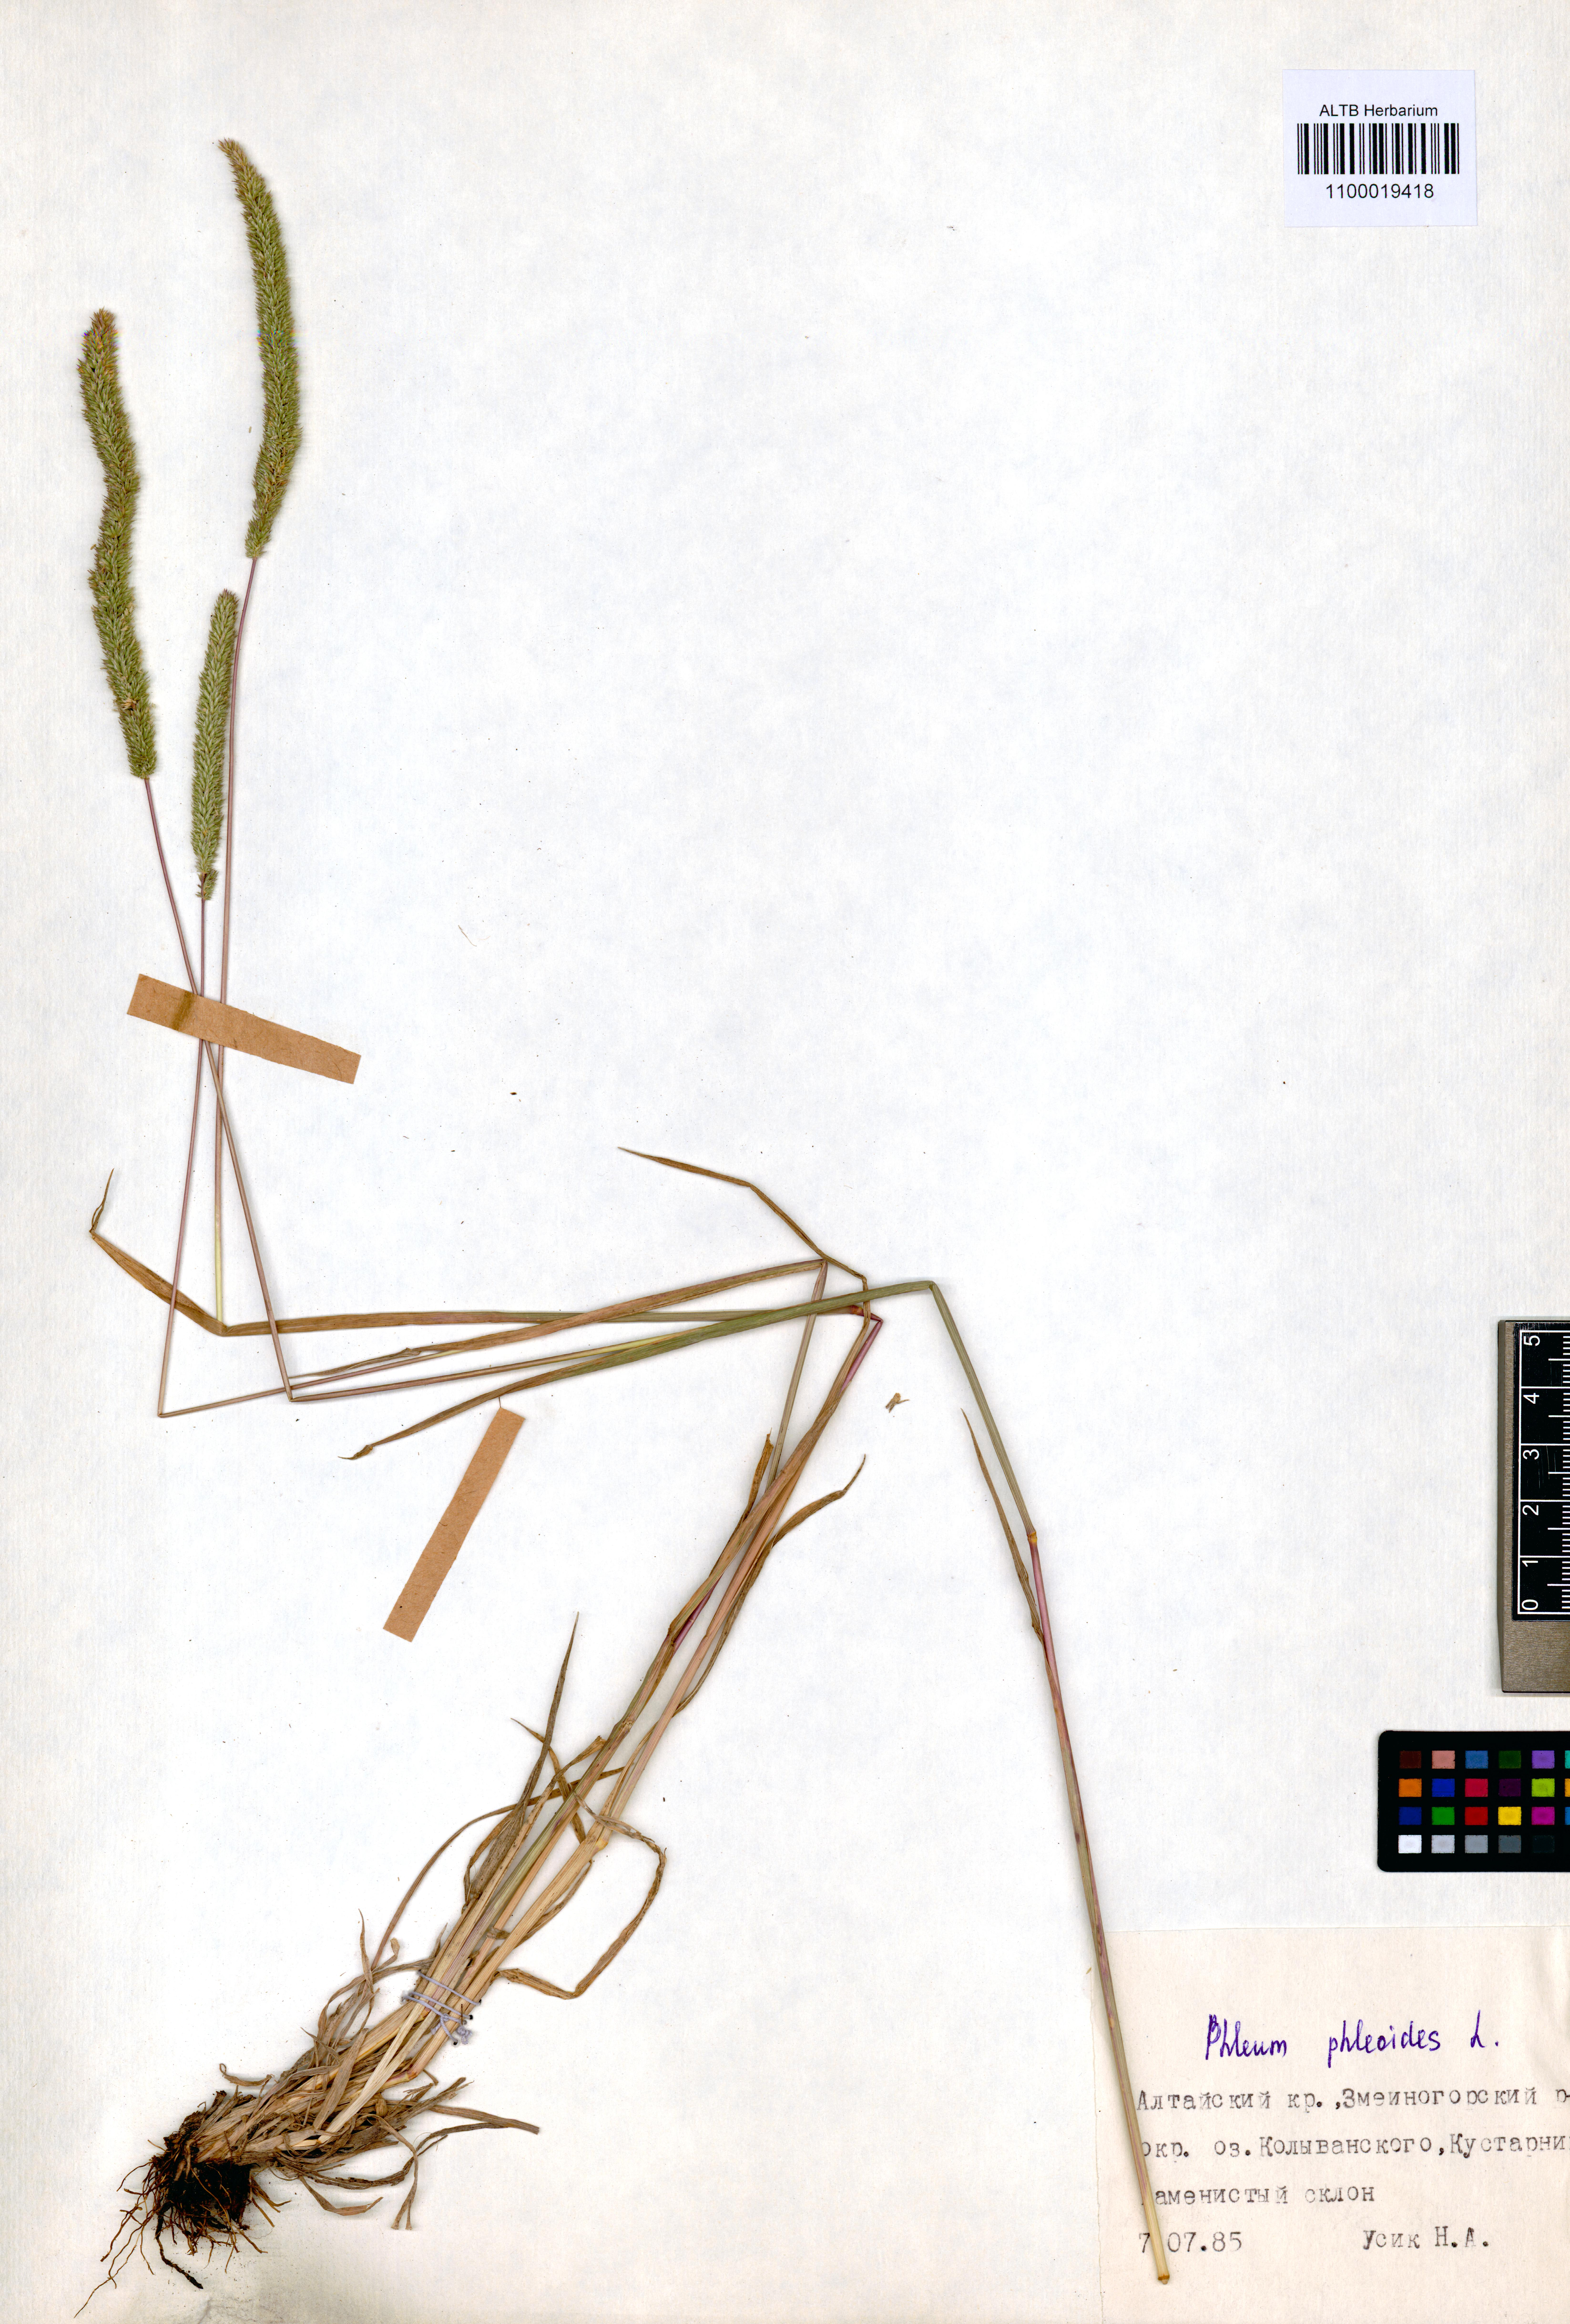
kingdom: Plantae
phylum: Tracheophyta
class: Liliopsida
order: Poales
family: Poaceae
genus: Phleum
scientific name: Phleum phleoides
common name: Purple-stem cat's-tail
